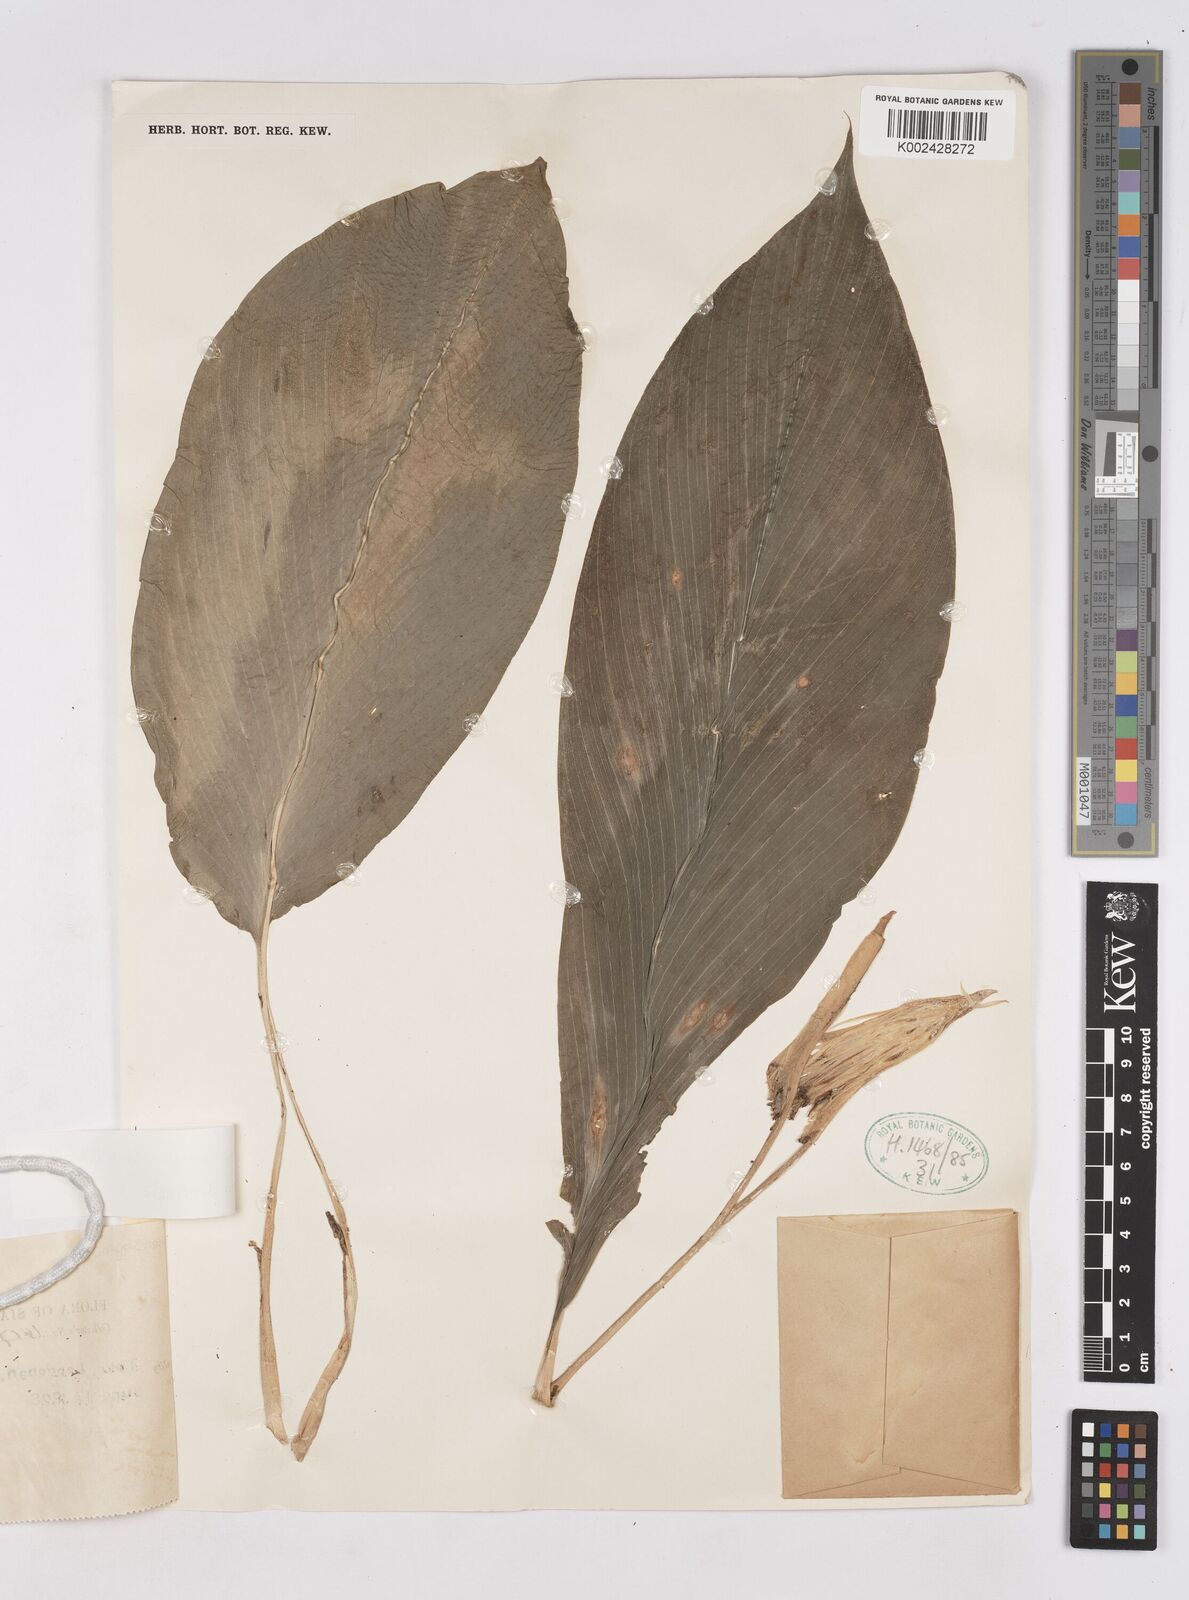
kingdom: Plantae
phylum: Tracheophyta
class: Liliopsida
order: Zingiberales
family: Zingiberaceae
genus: Boesenbergia
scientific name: Boesenbergia curtisii
